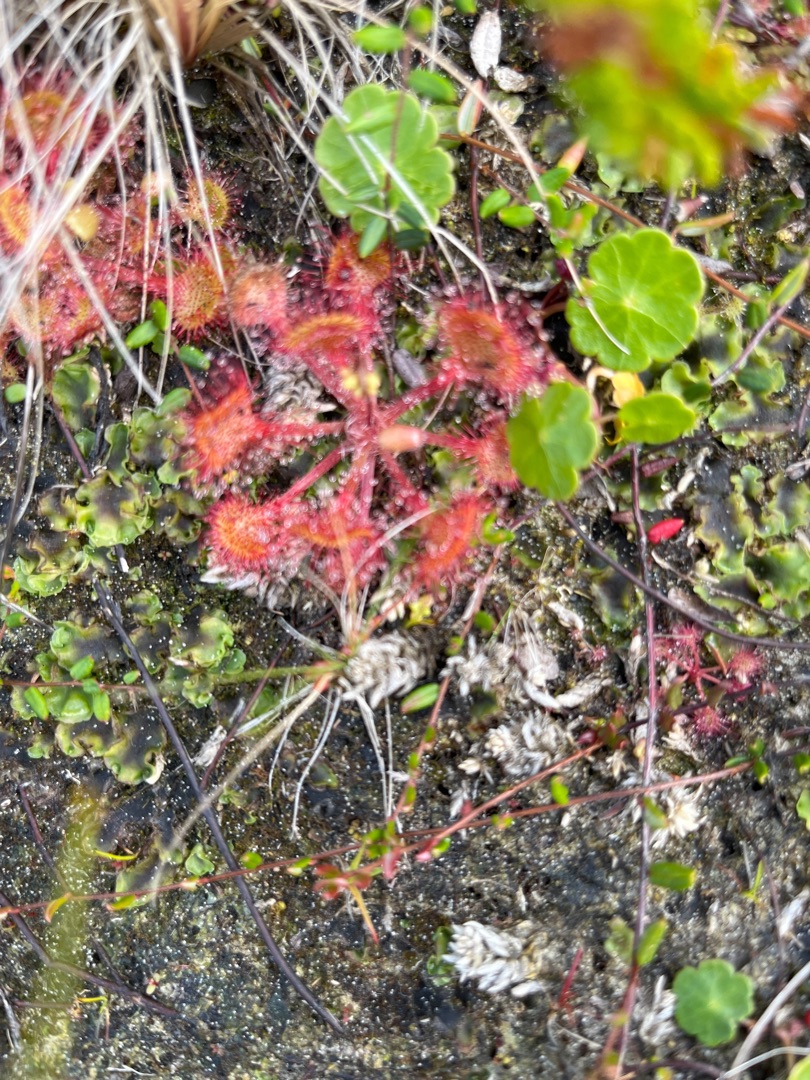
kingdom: Plantae
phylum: Tracheophyta
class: Magnoliopsida
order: Caryophyllales
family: Droseraceae
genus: Drosera
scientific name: Drosera rotundifolia
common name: Rundbladet soldug
